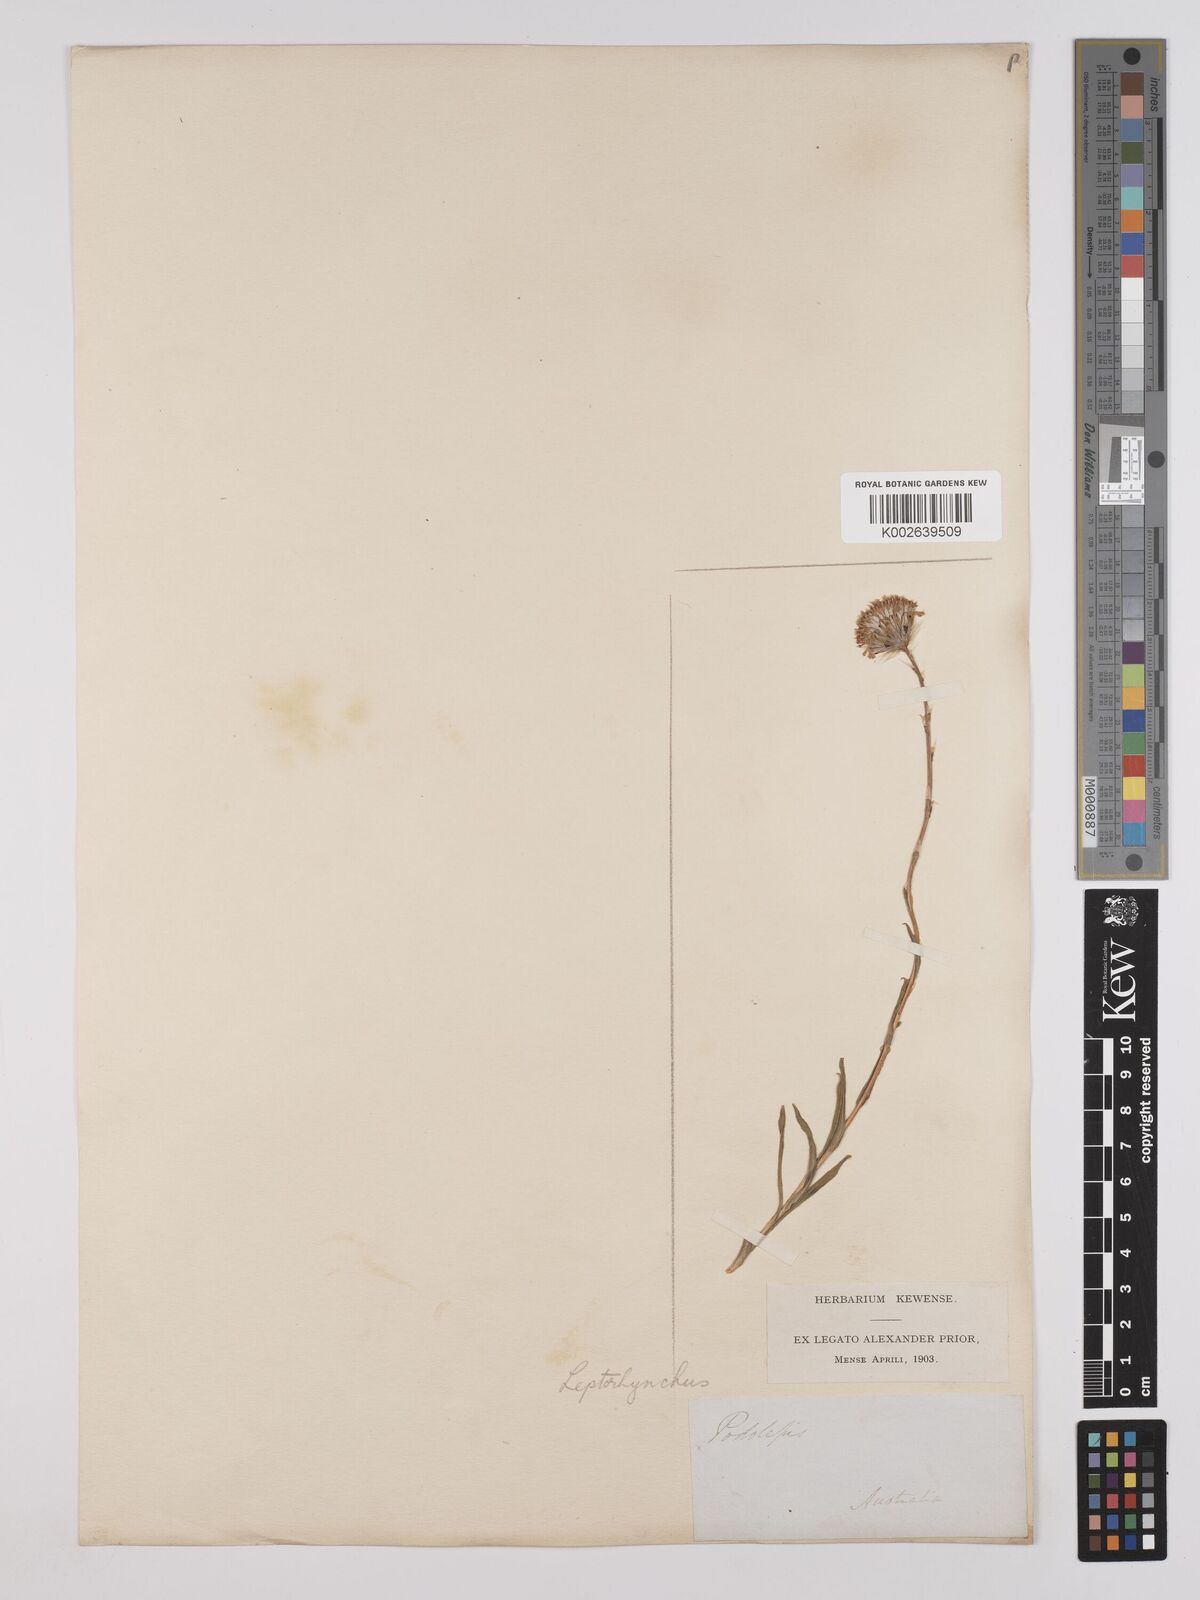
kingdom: Plantae
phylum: Tracheophyta
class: Magnoliopsida
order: Asterales
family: Asteraceae
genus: Leptorhynchos
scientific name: Leptorhynchos elongatus
